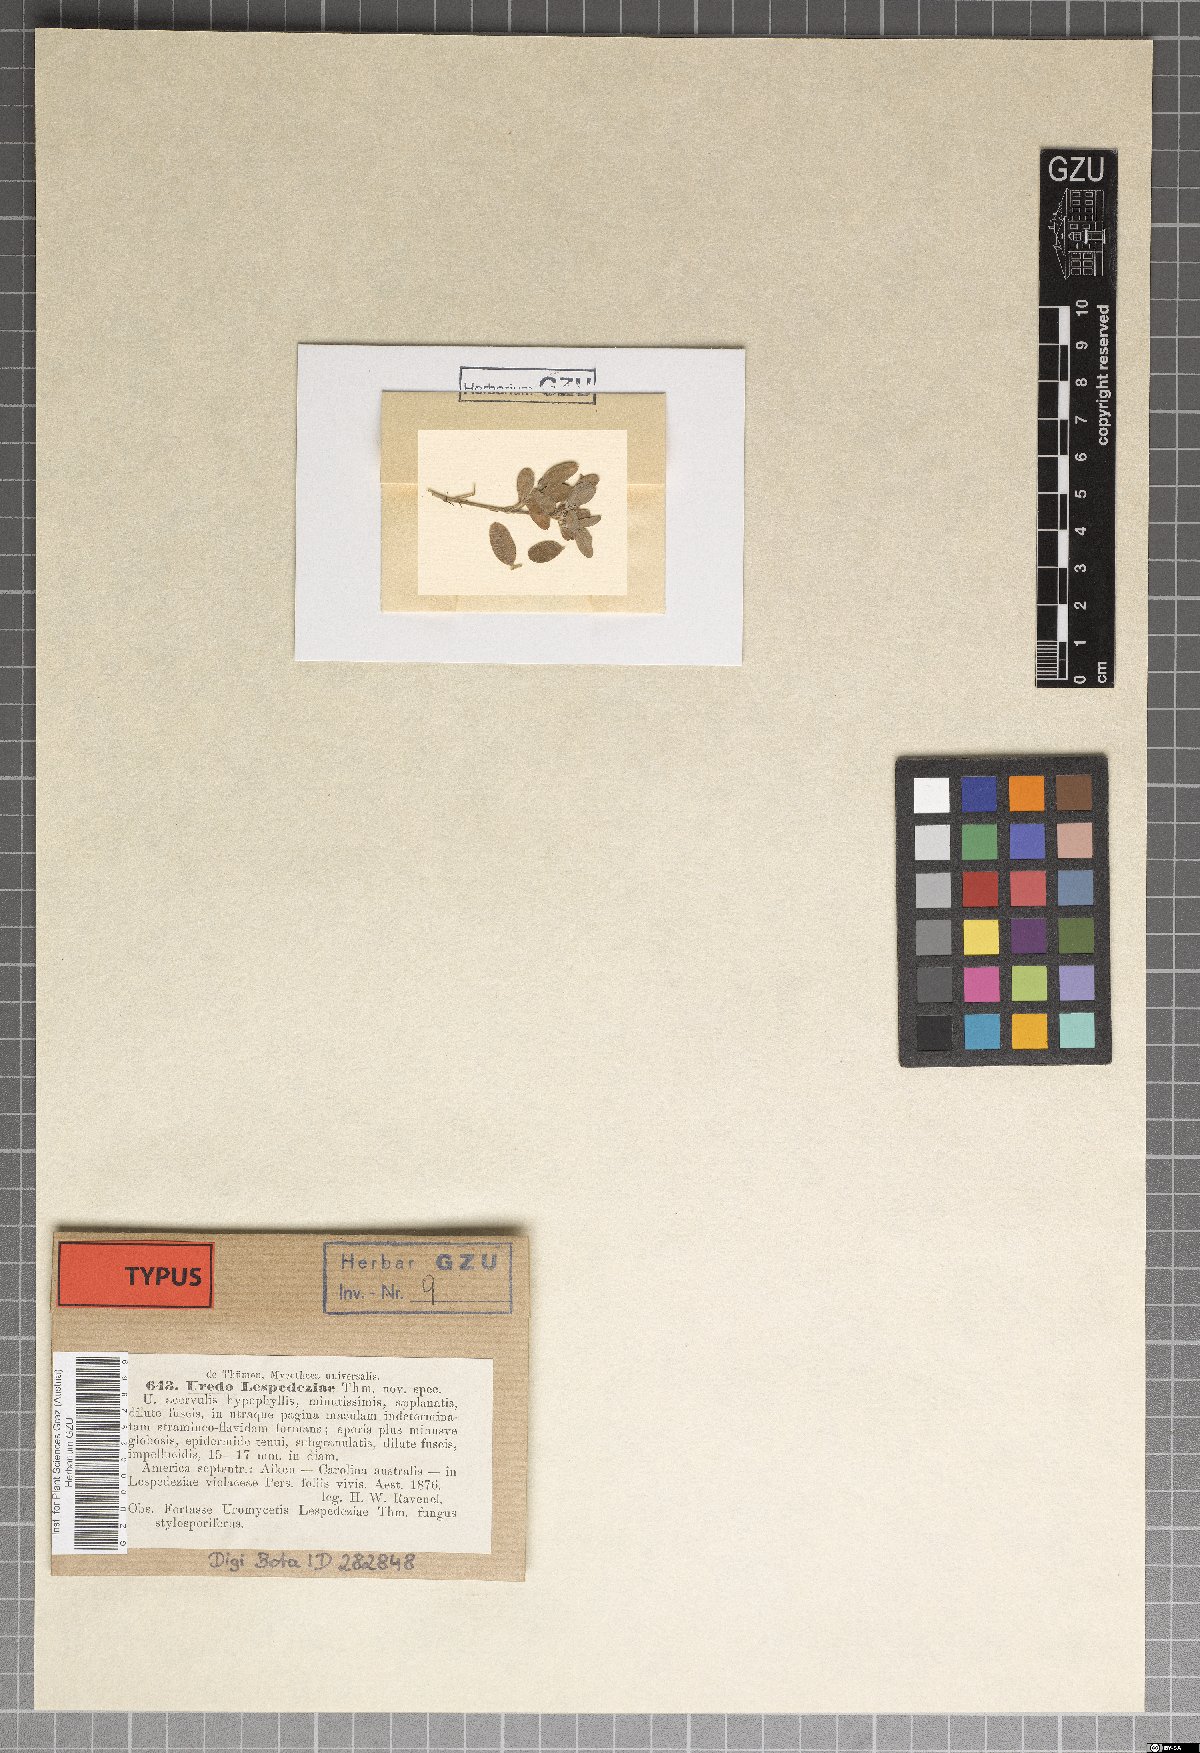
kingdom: Fungi
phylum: Basidiomycota
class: Pucciniomycetes
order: Pucciniales
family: Pucciniaceae
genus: Uromyces
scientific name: Uromyces lespedezae
